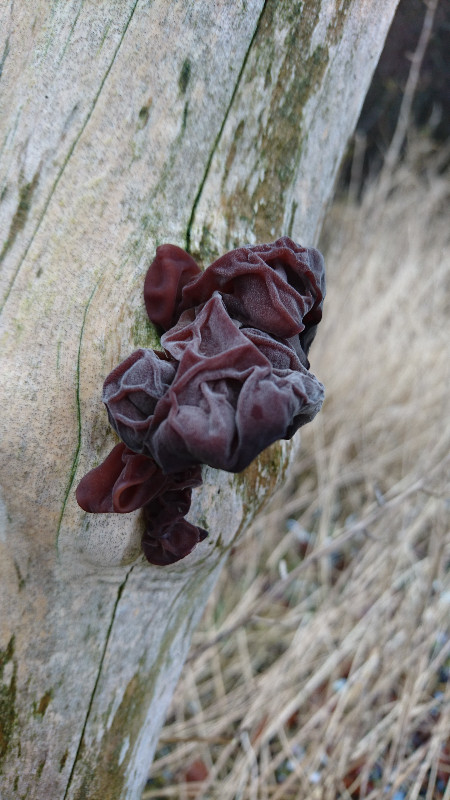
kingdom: Fungi
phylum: Basidiomycota
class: Agaricomycetes
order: Auriculariales
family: Auriculariaceae
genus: Auricularia
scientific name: Auricularia auricula-judae
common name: almindelig judasøre
